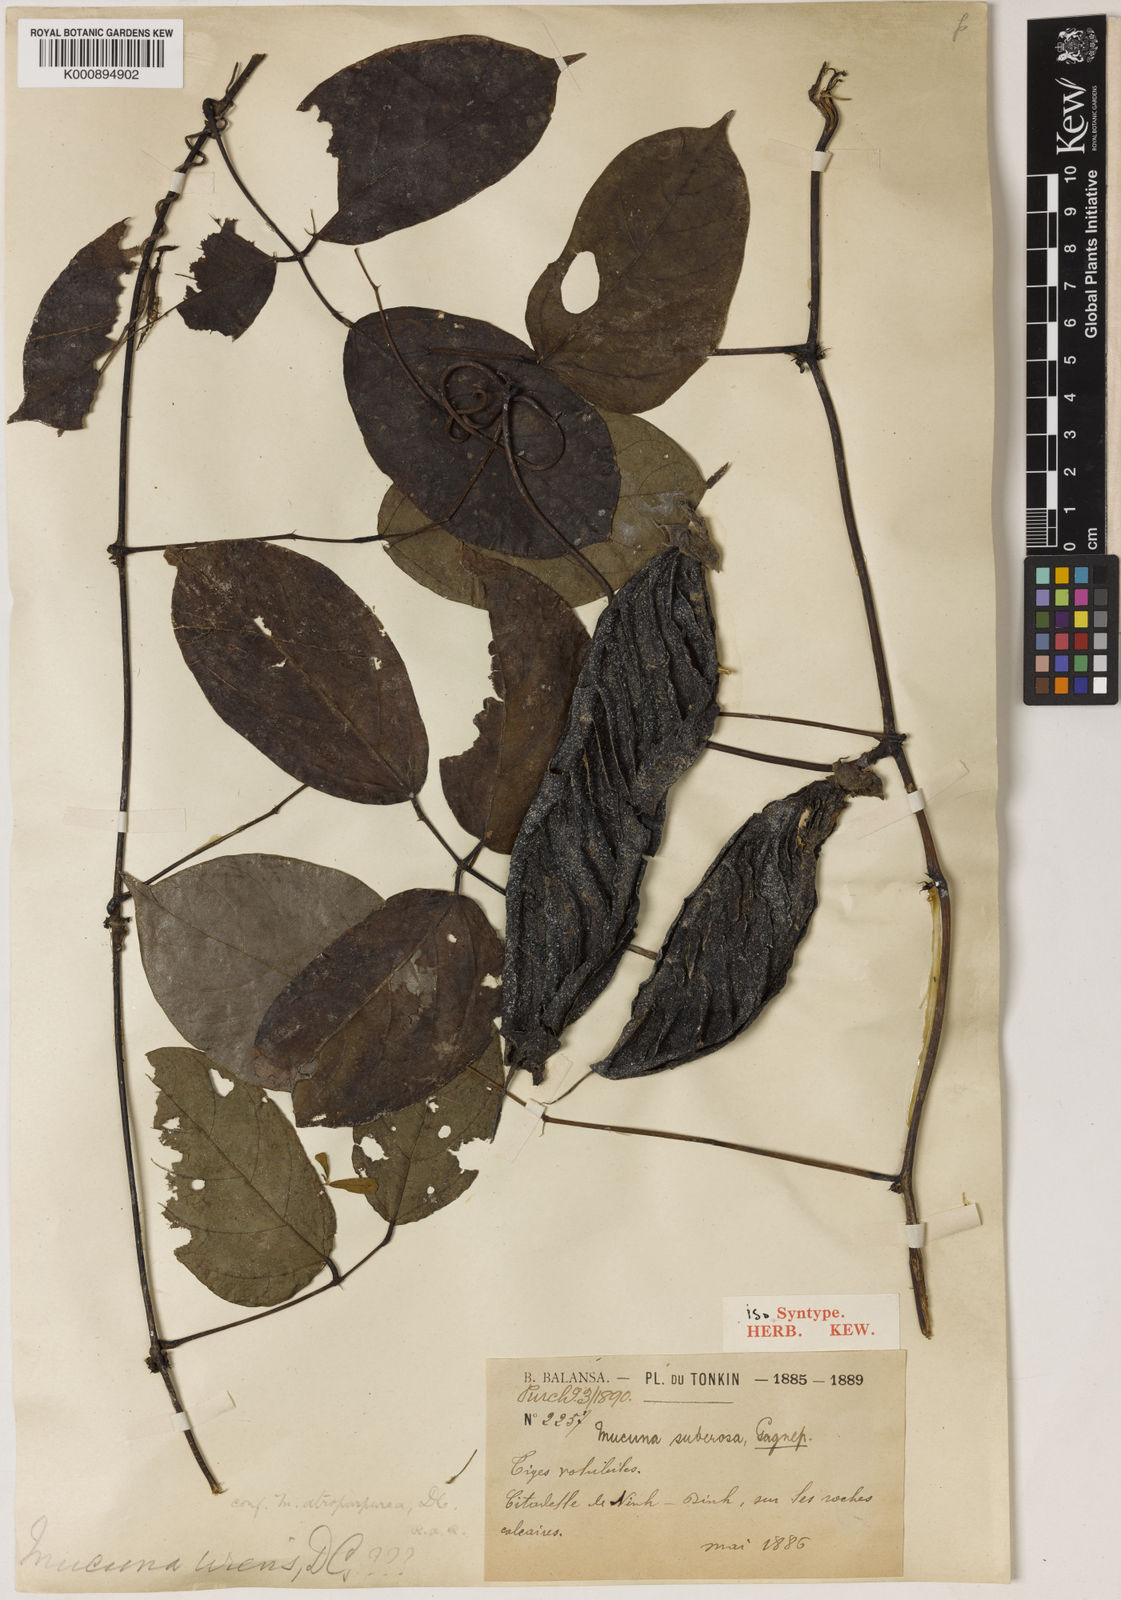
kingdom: Plantae
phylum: Tracheophyta
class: Magnoliopsida
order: Fabales
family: Fabaceae
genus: Mucuna
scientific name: Mucuna hainanensis
